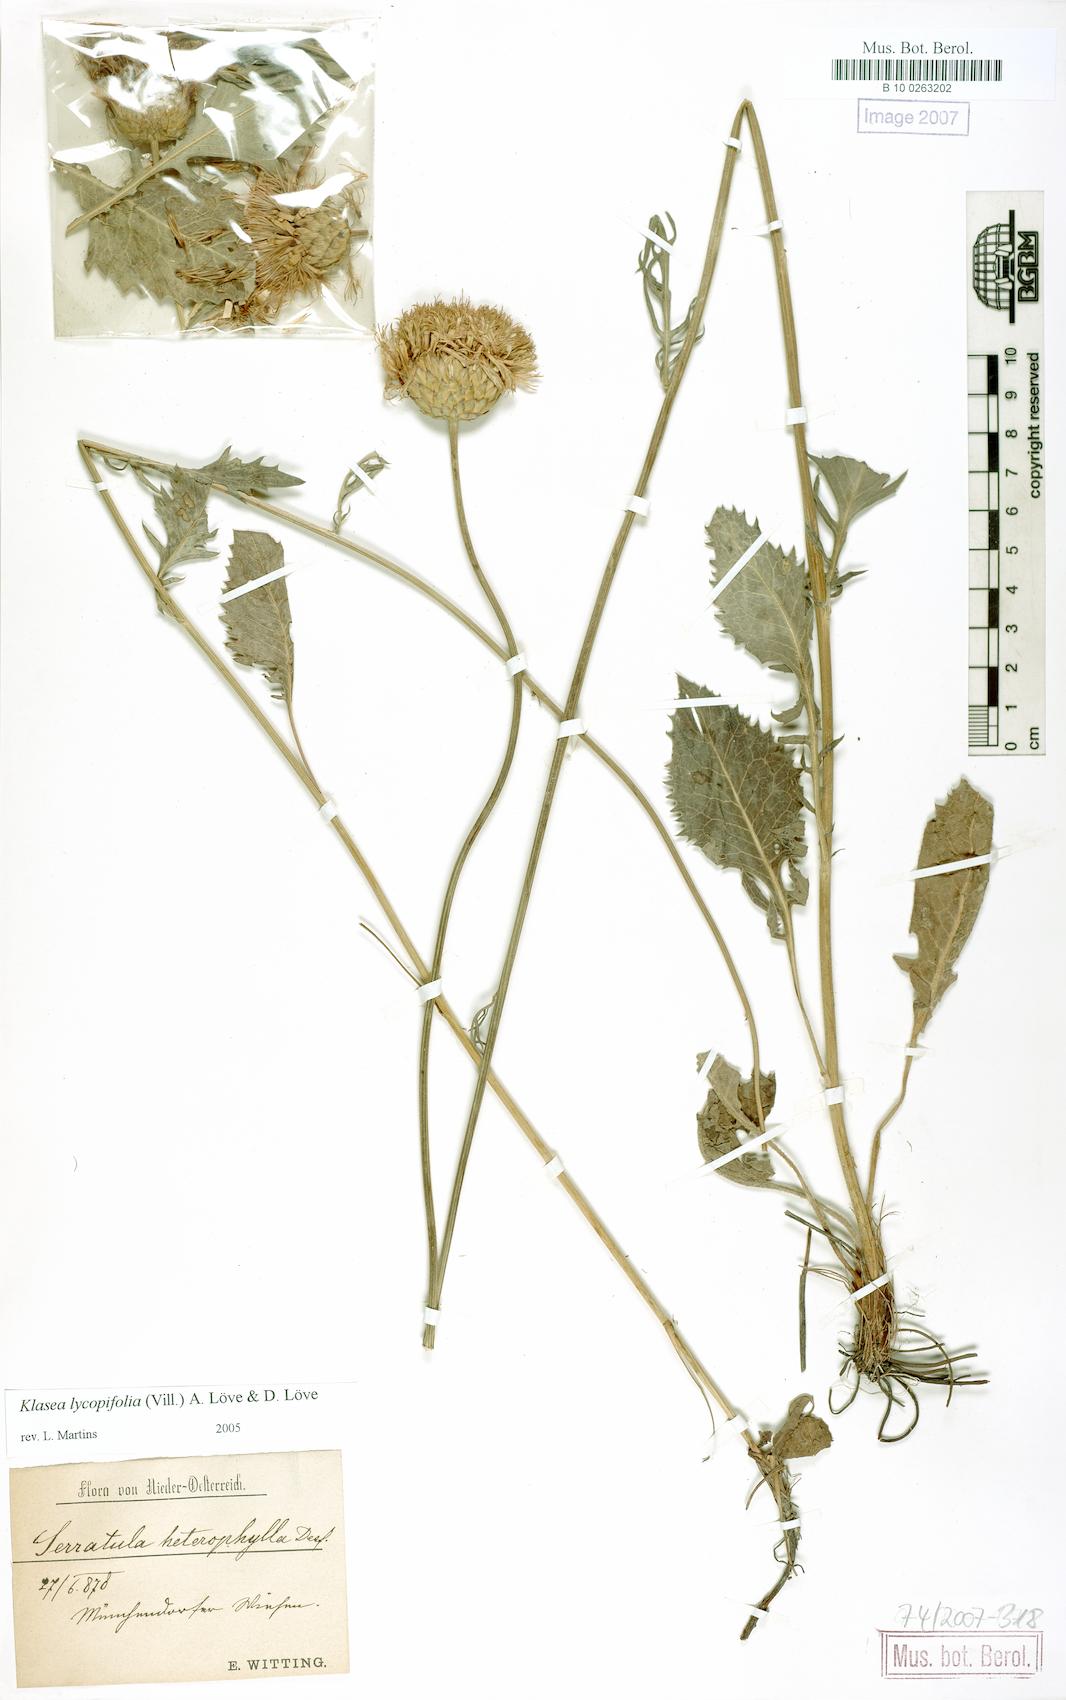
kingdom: Plantae
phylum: Tracheophyta
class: Magnoliopsida
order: Asterales
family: Asteraceae
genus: Klasea
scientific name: Klasea lycopifolia
